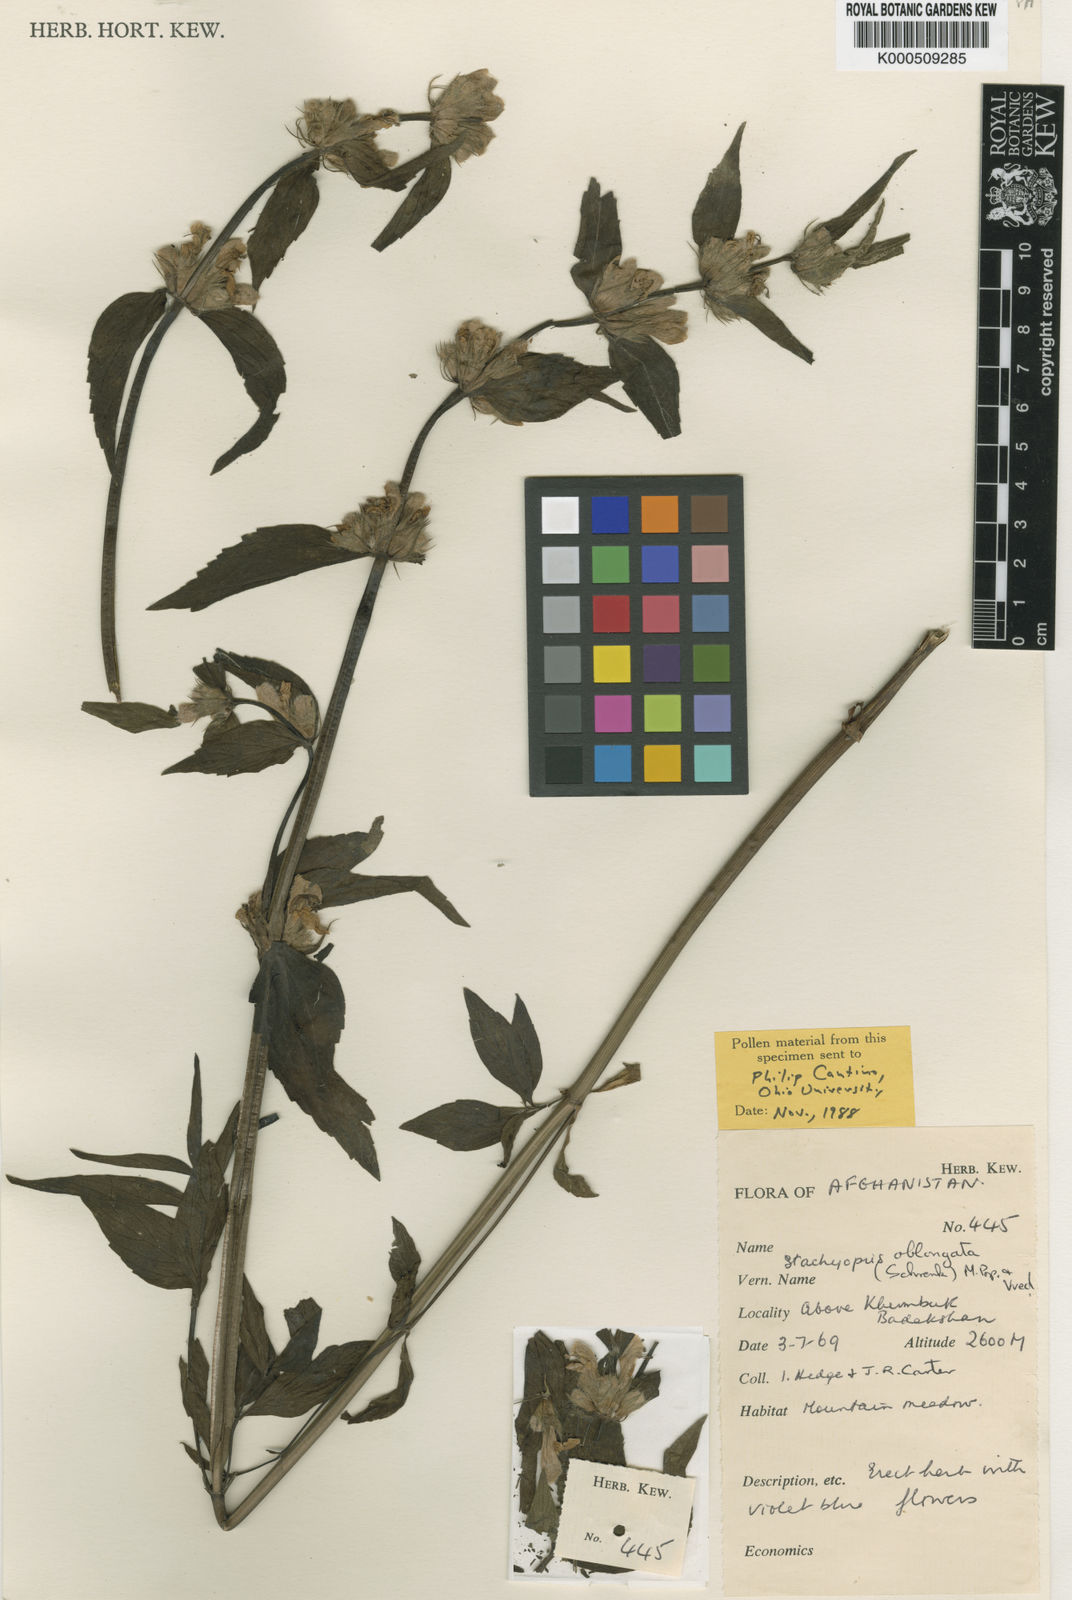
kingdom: Plantae
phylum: Tracheophyta
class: Magnoliopsida
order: Lamiales
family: Lamiaceae
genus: Eriophyton
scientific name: Eriophyton oblongatum
